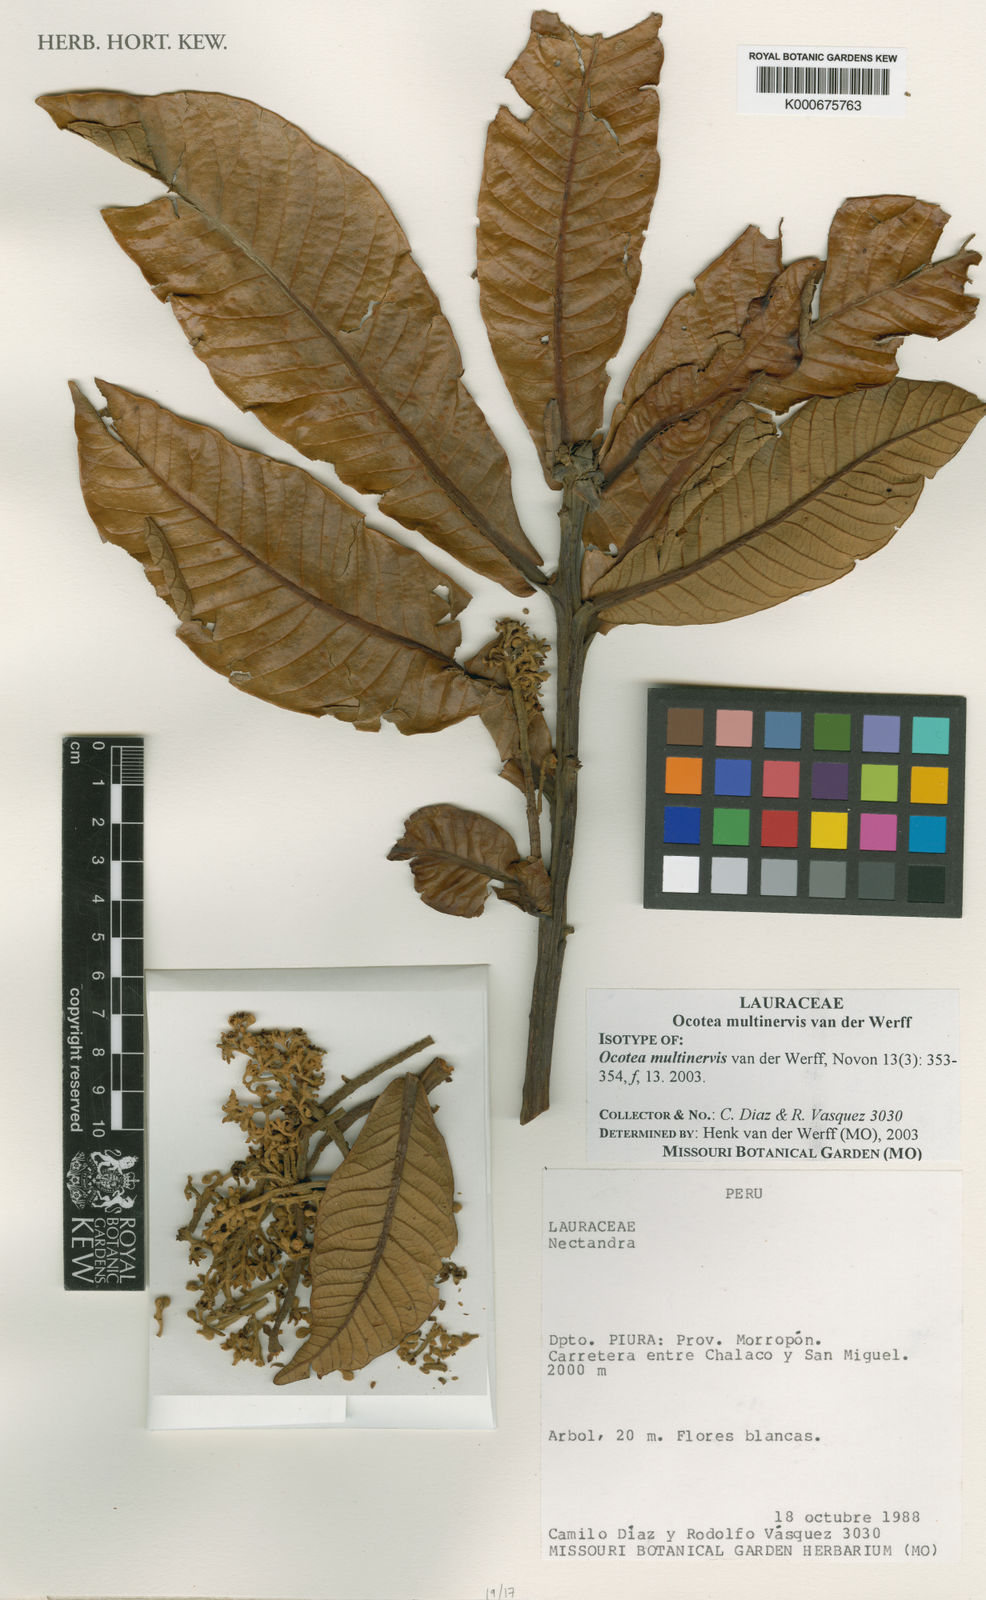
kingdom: Plantae
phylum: Tracheophyta
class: Magnoliopsida
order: Laurales
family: Lauraceae
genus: Andea
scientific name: Andea multinervis
